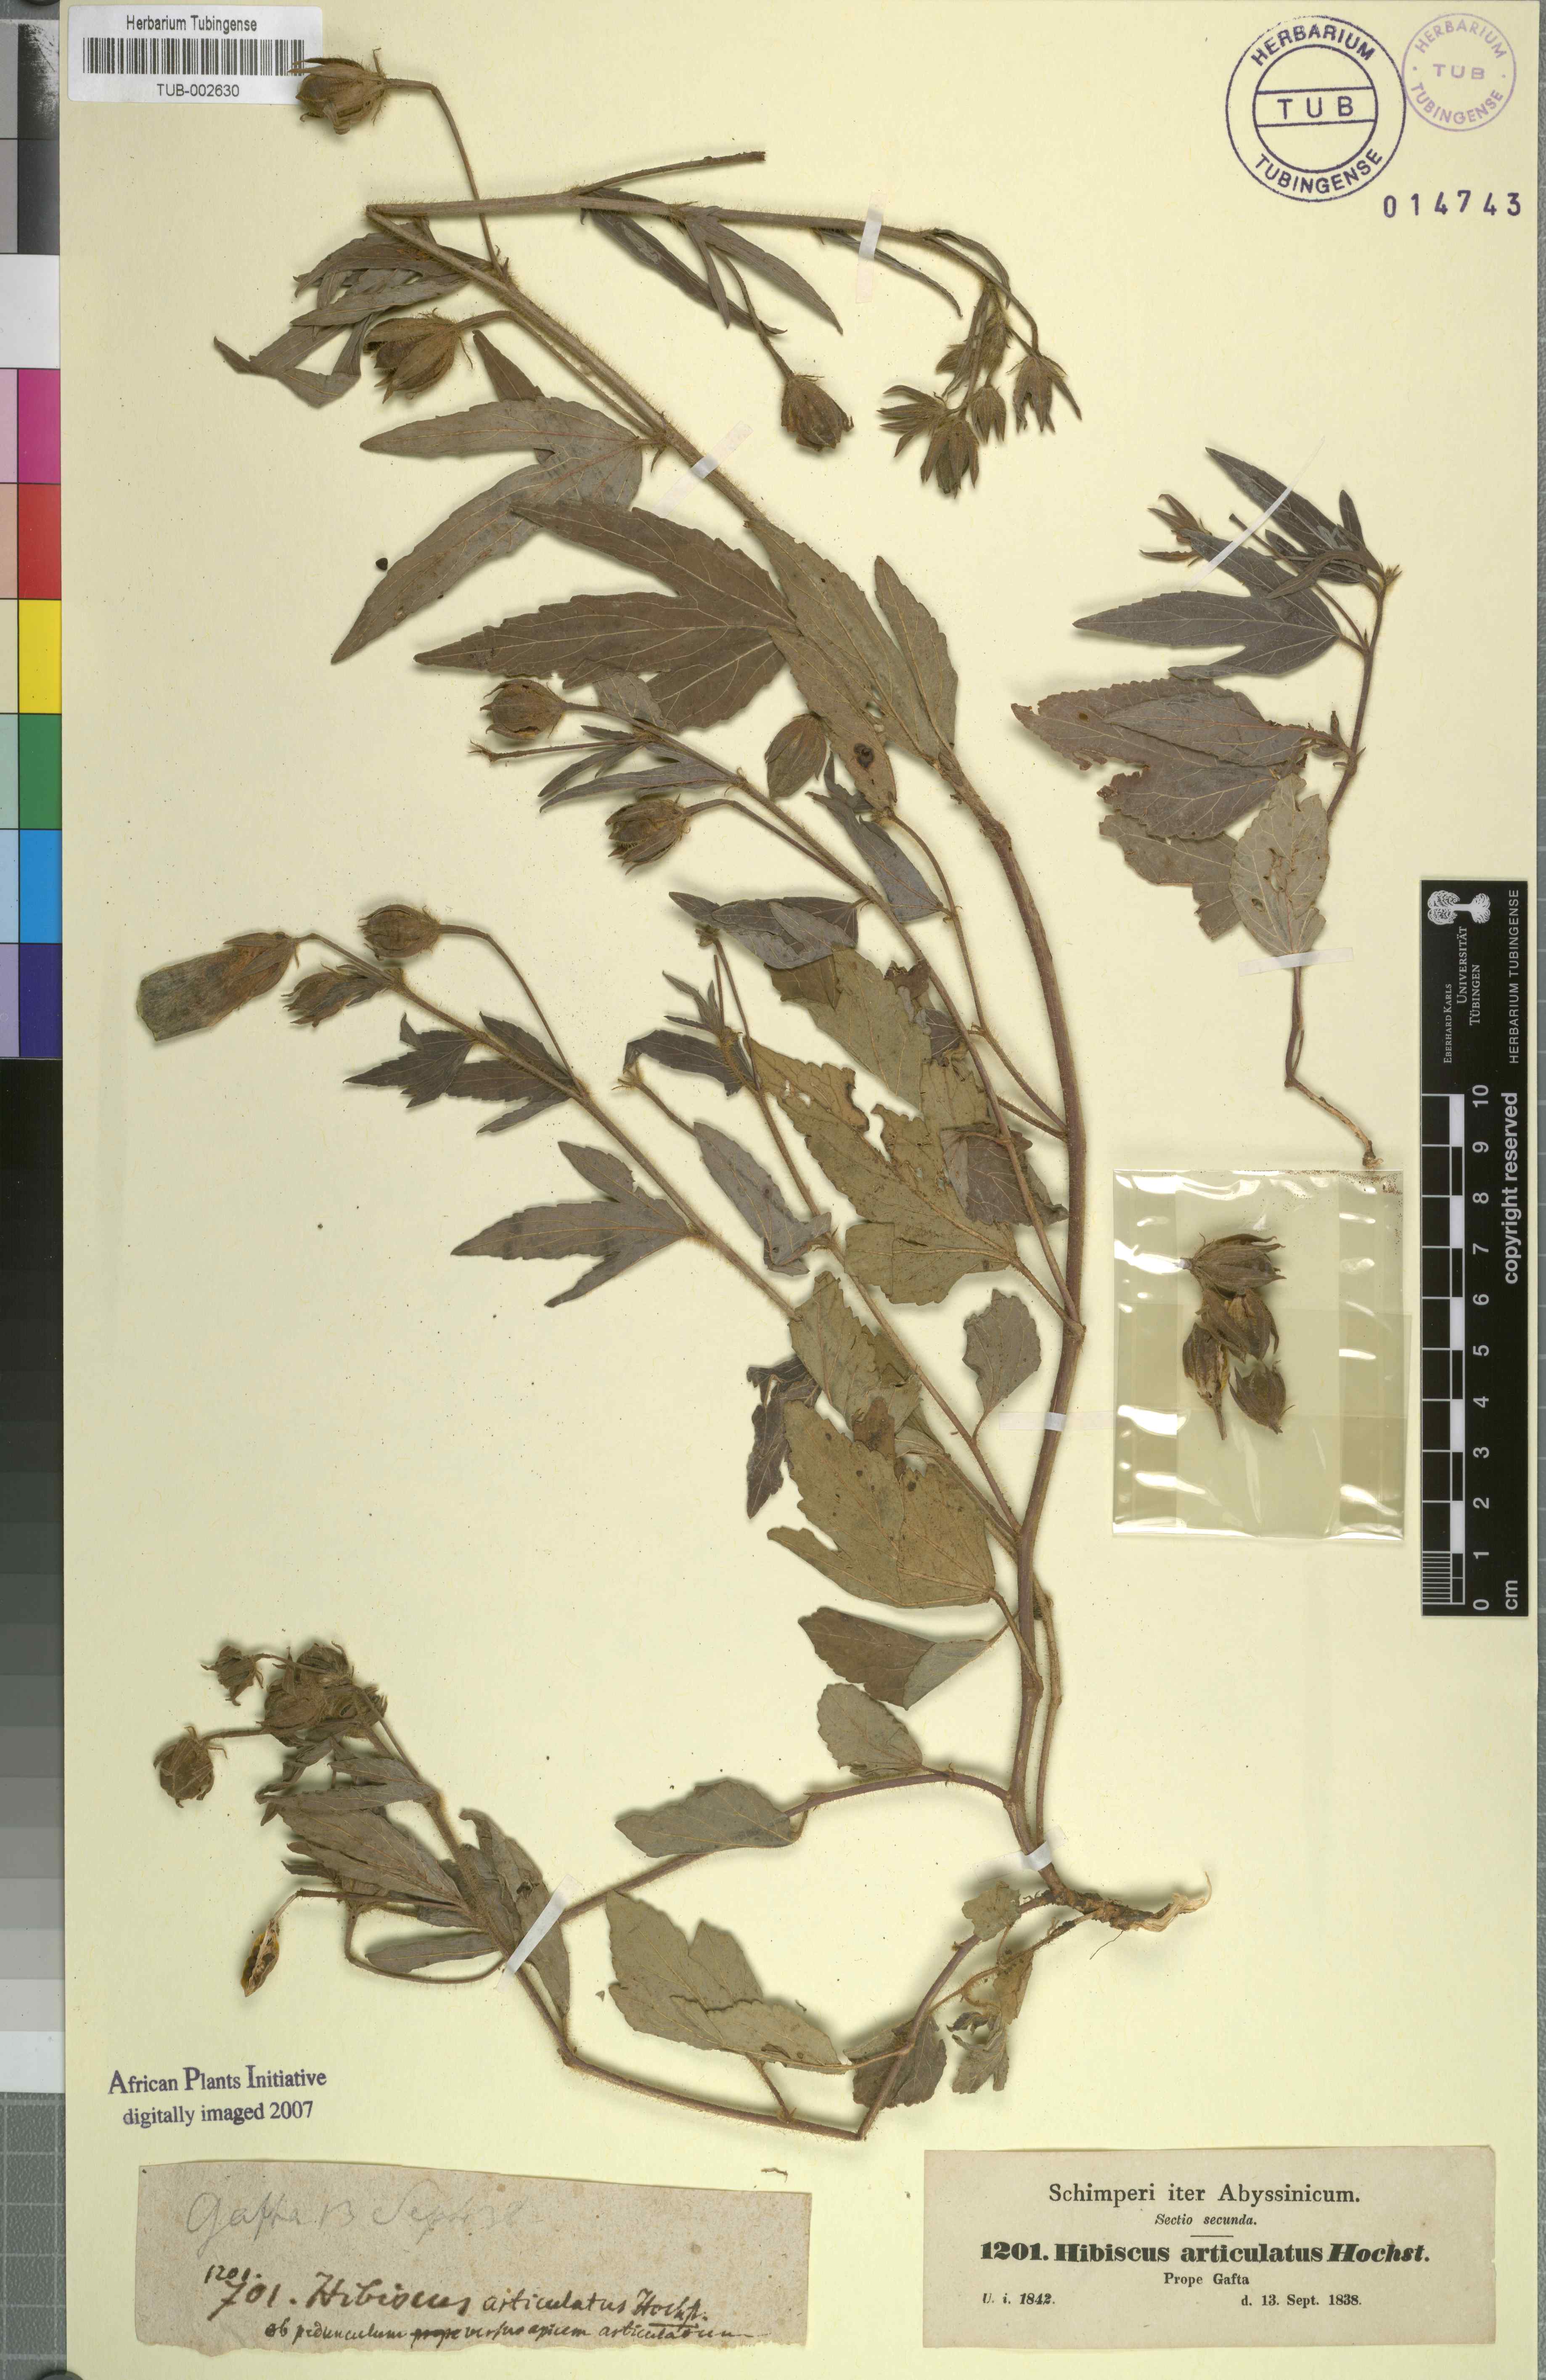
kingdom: Plantae
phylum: Tracheophyta
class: Magnoliopsida
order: Malvales
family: Malvaceae
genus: Hibiscus
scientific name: Hibiscus articulatus
